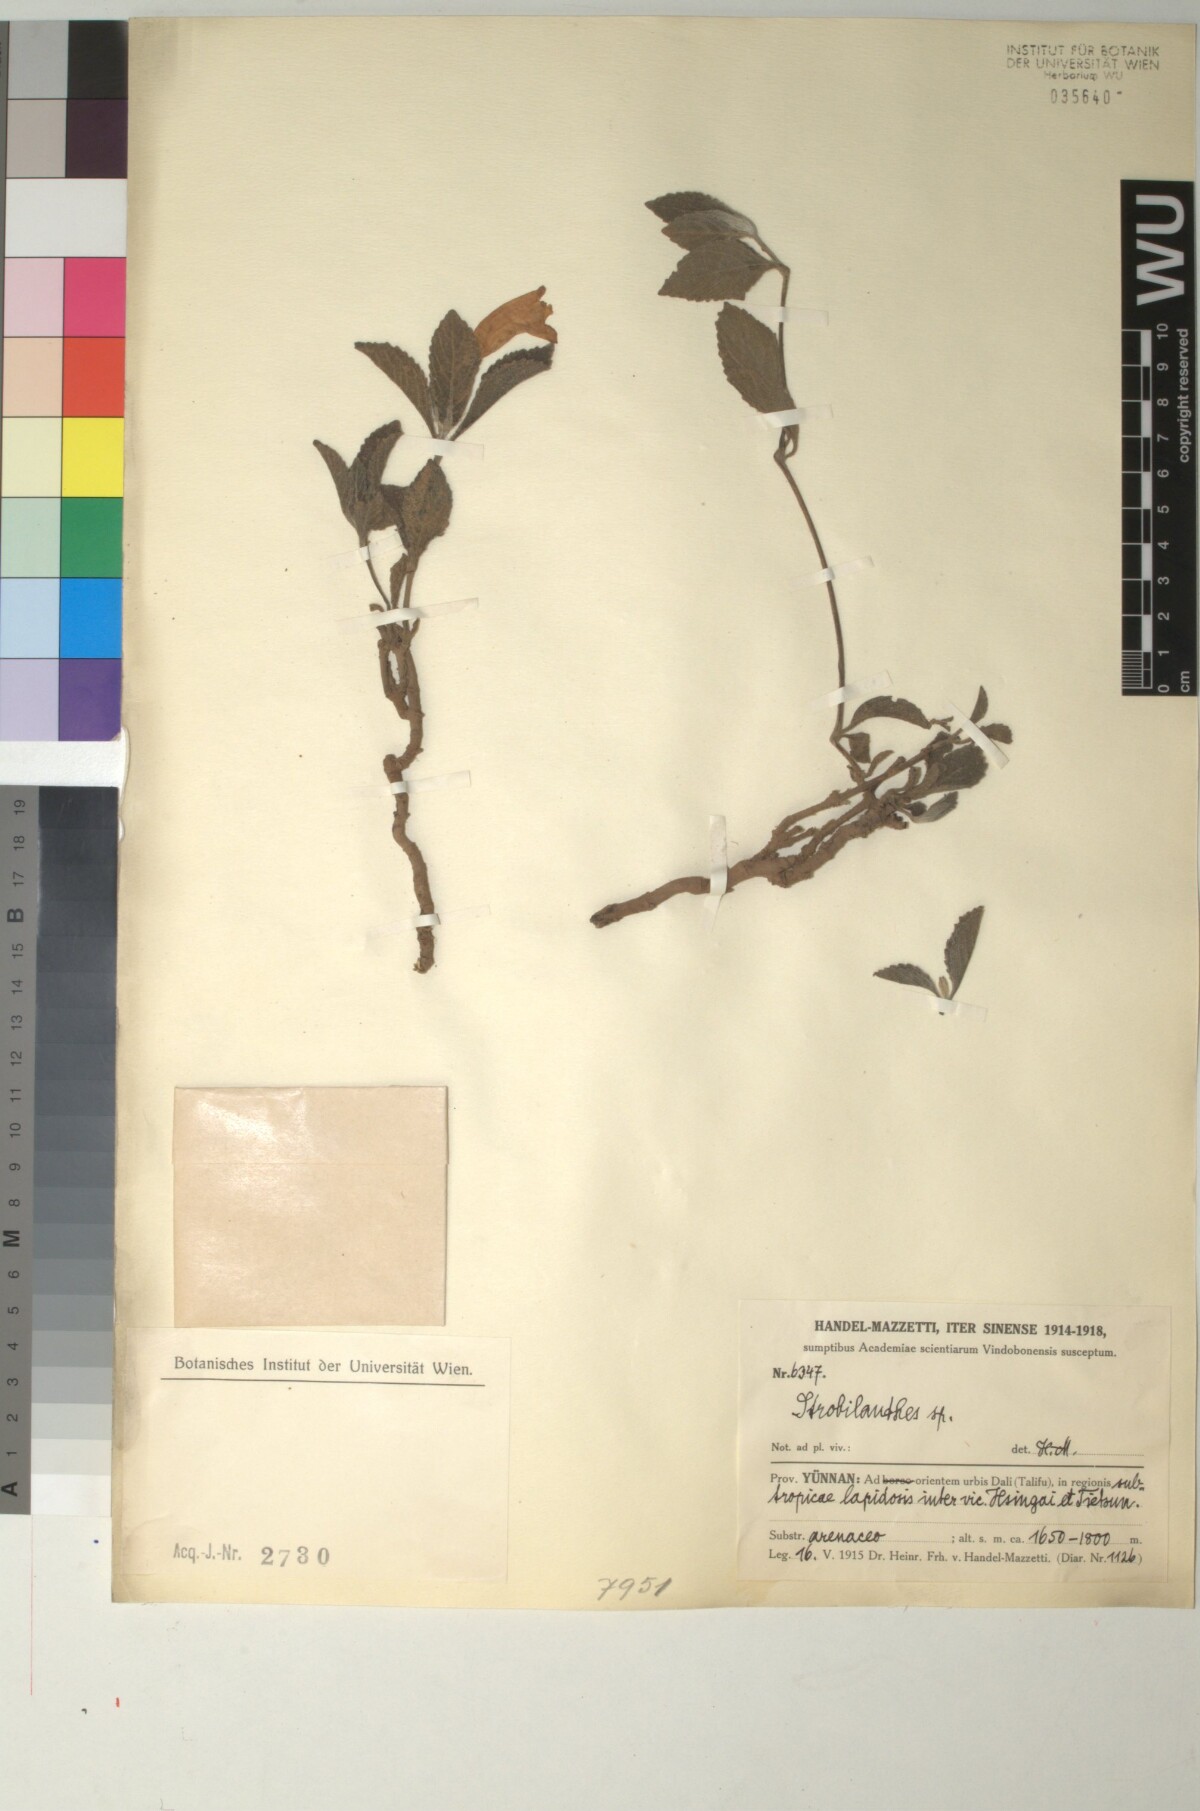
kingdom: Plantae
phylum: Tracheophyta
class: Magnoliopsida
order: Lamiales
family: Acanthaceae
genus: Strobilanthes
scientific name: Strobilanthes
